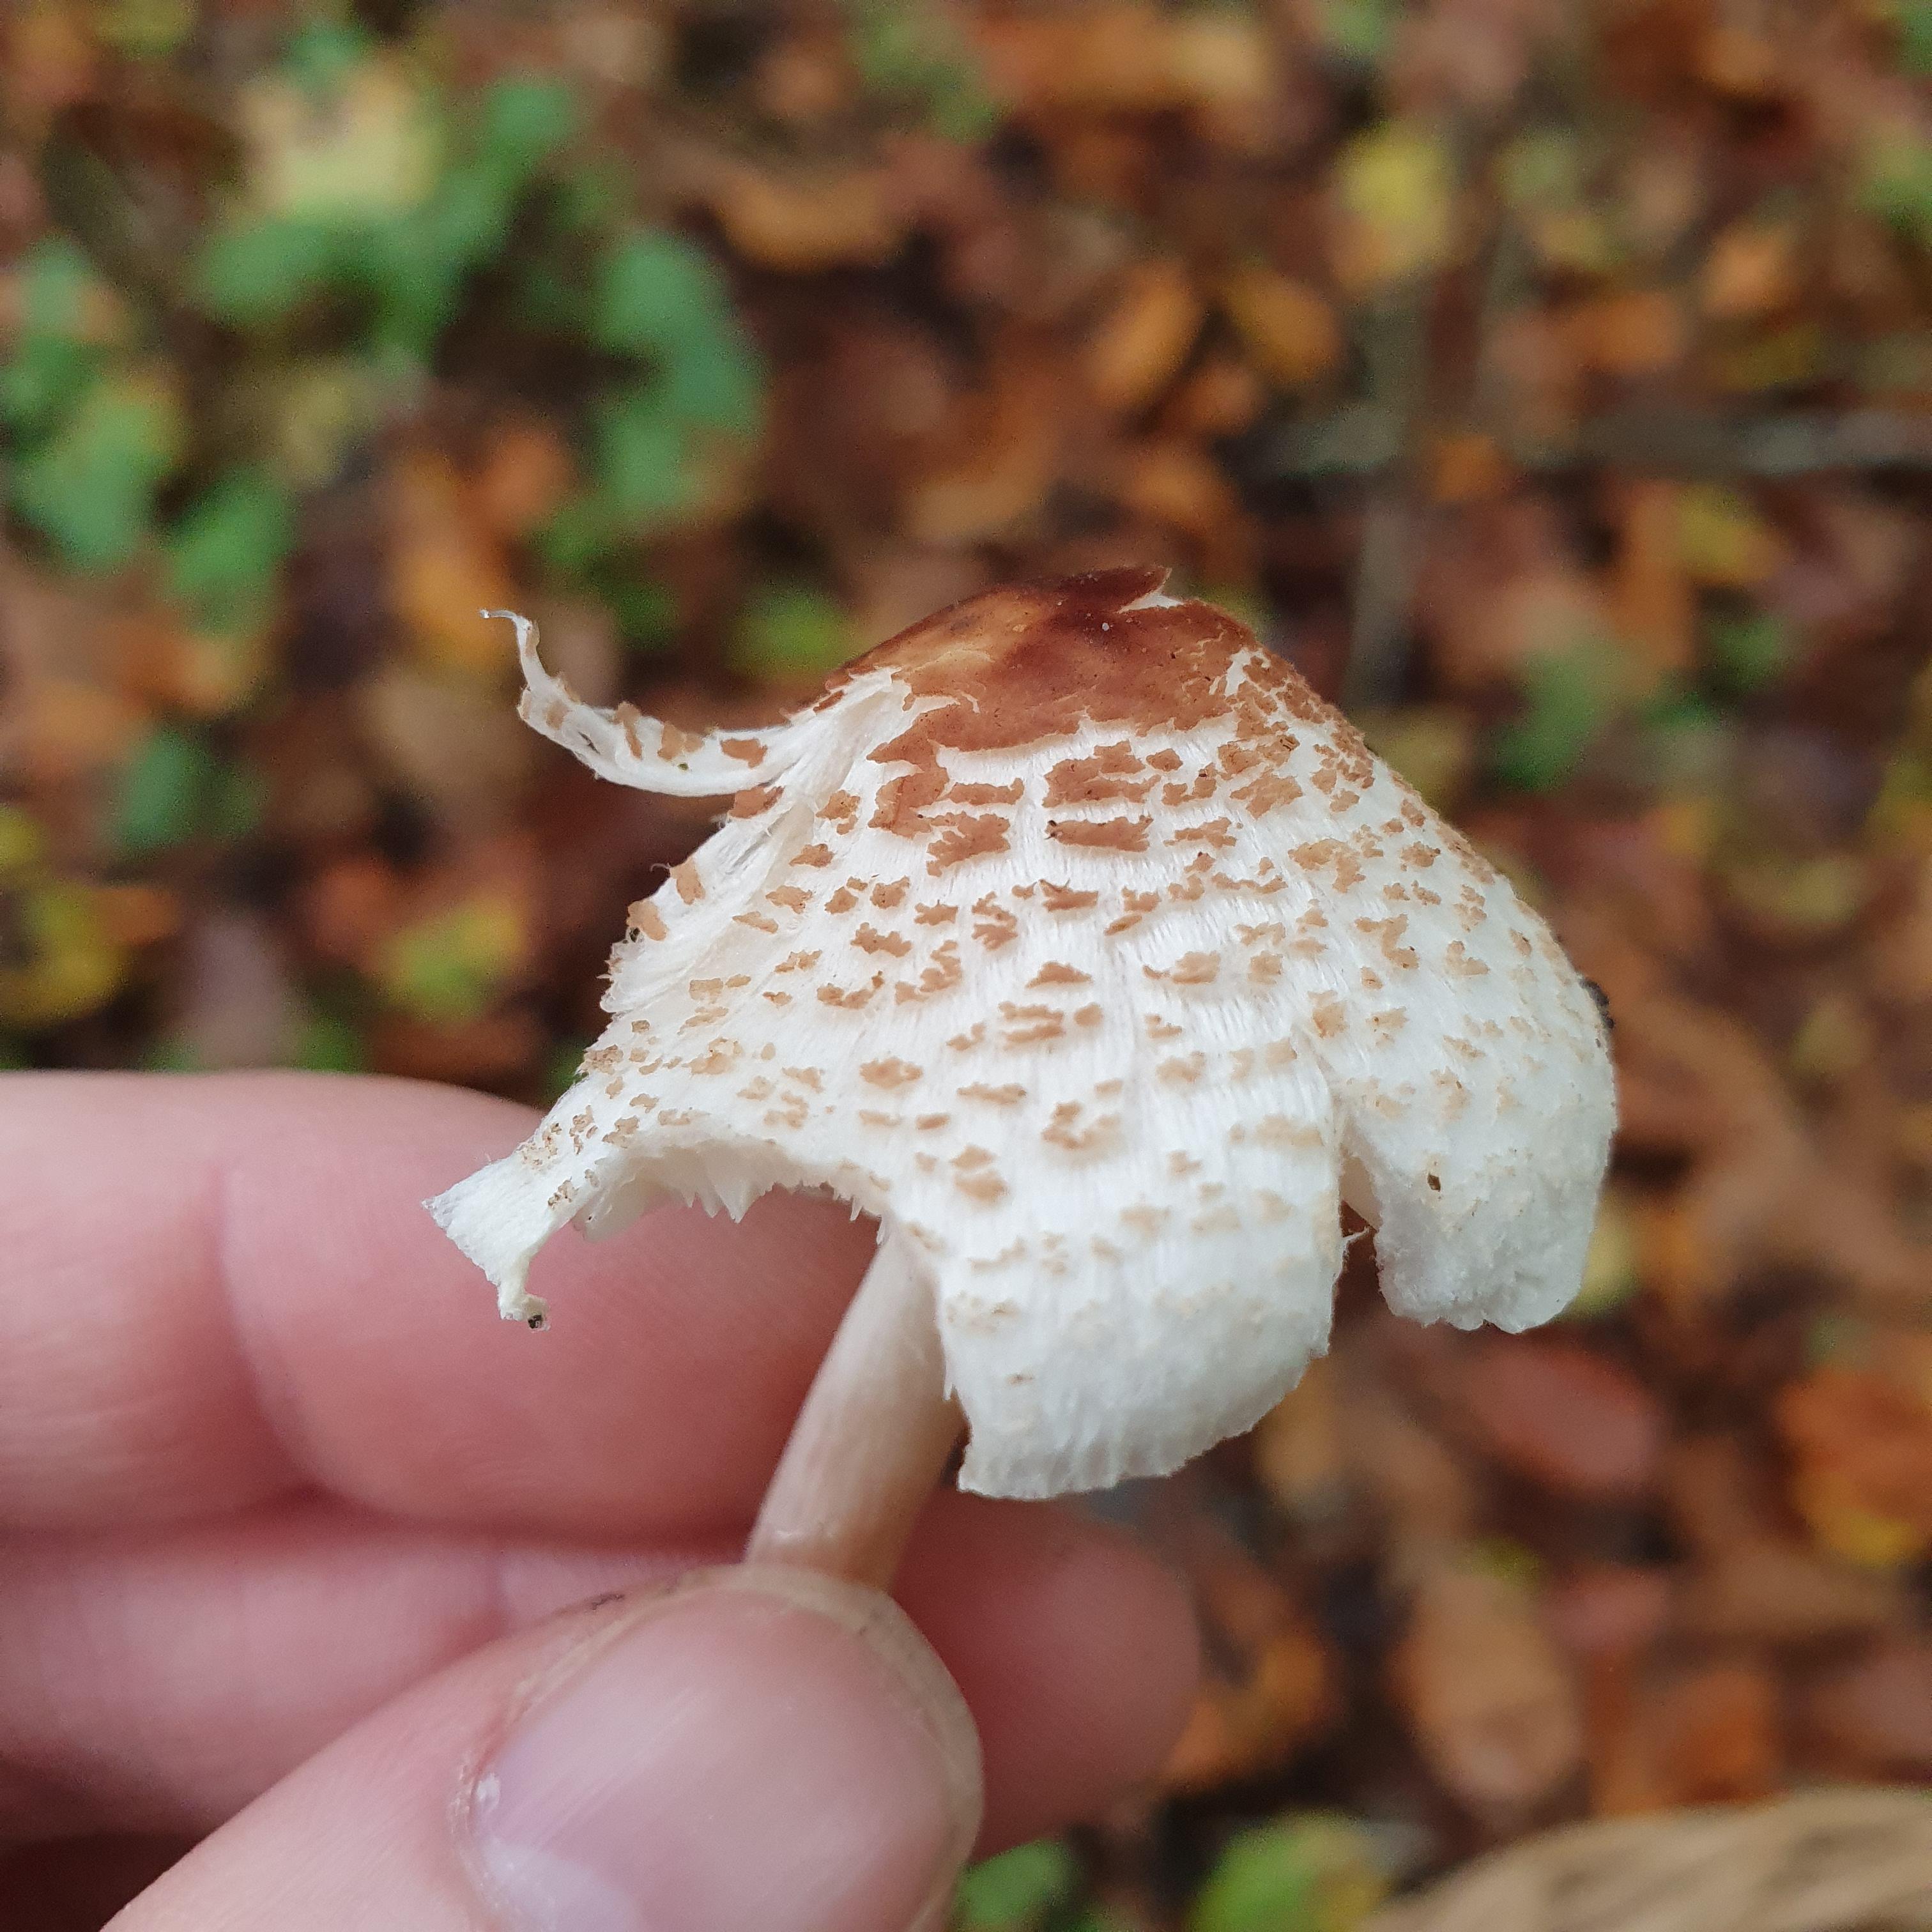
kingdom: Fungi
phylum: Basidiomycota
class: Agaricomycetes
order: Agaricales
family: Agaricaceae
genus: Lepiota
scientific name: Lepiota cristata
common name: stinkende parasolhat
